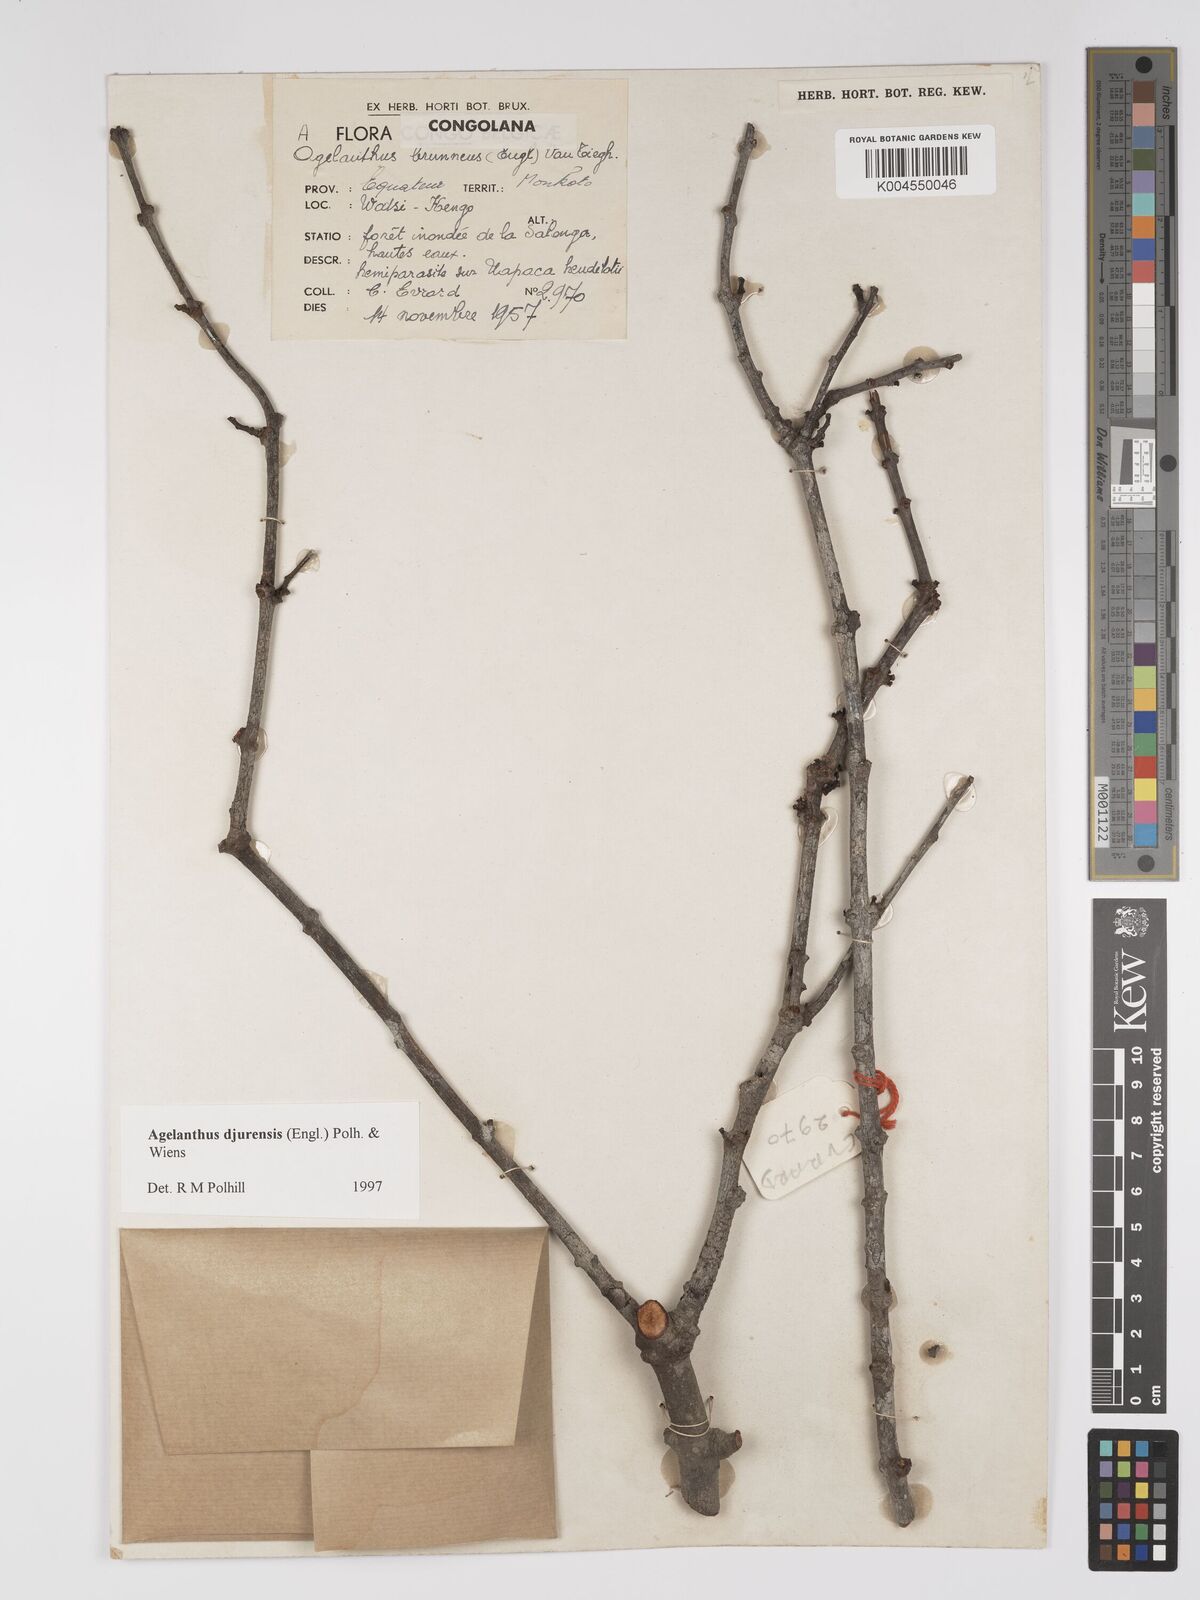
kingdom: Plantae
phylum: Tracheophyta
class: Magnoliopsida
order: Santalales
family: Loranthaceae
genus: Agelanthus
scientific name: Agelanthus djurensis
